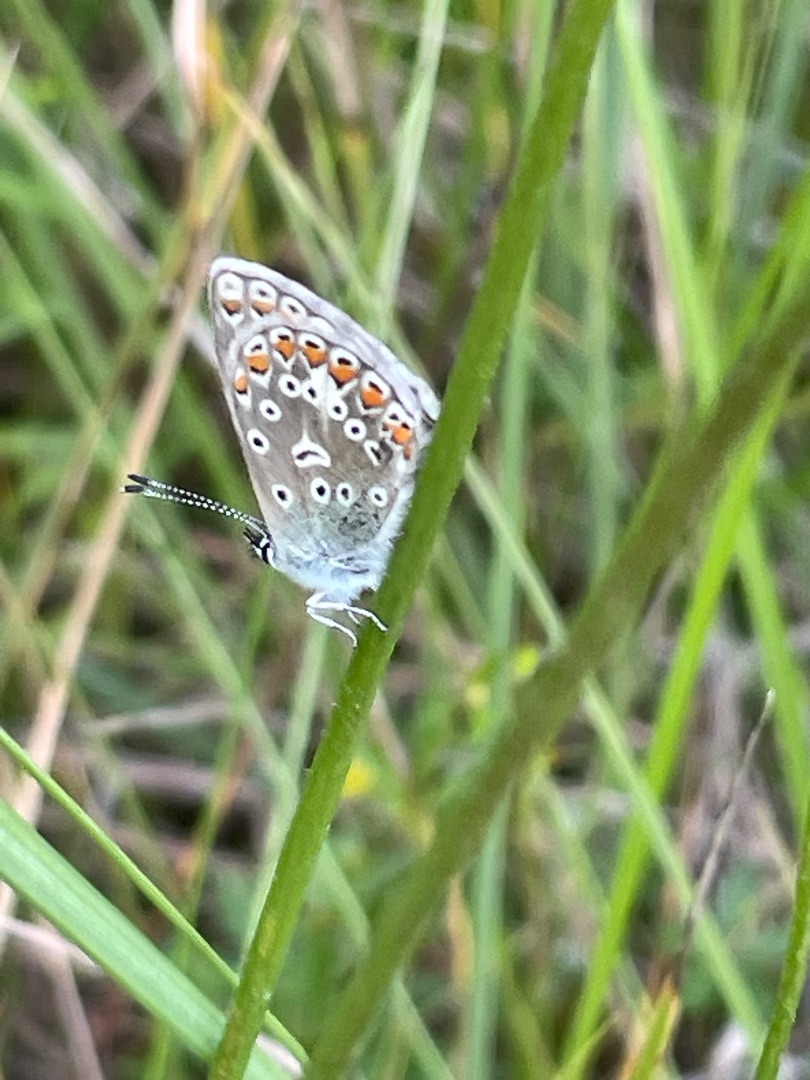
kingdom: Animalia
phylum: Arthropoda
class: Insecta
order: Lepidoptera
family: Lycaenidae
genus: Polyommatus
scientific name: Polyommatus icarus
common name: Almindelig blåfugl
